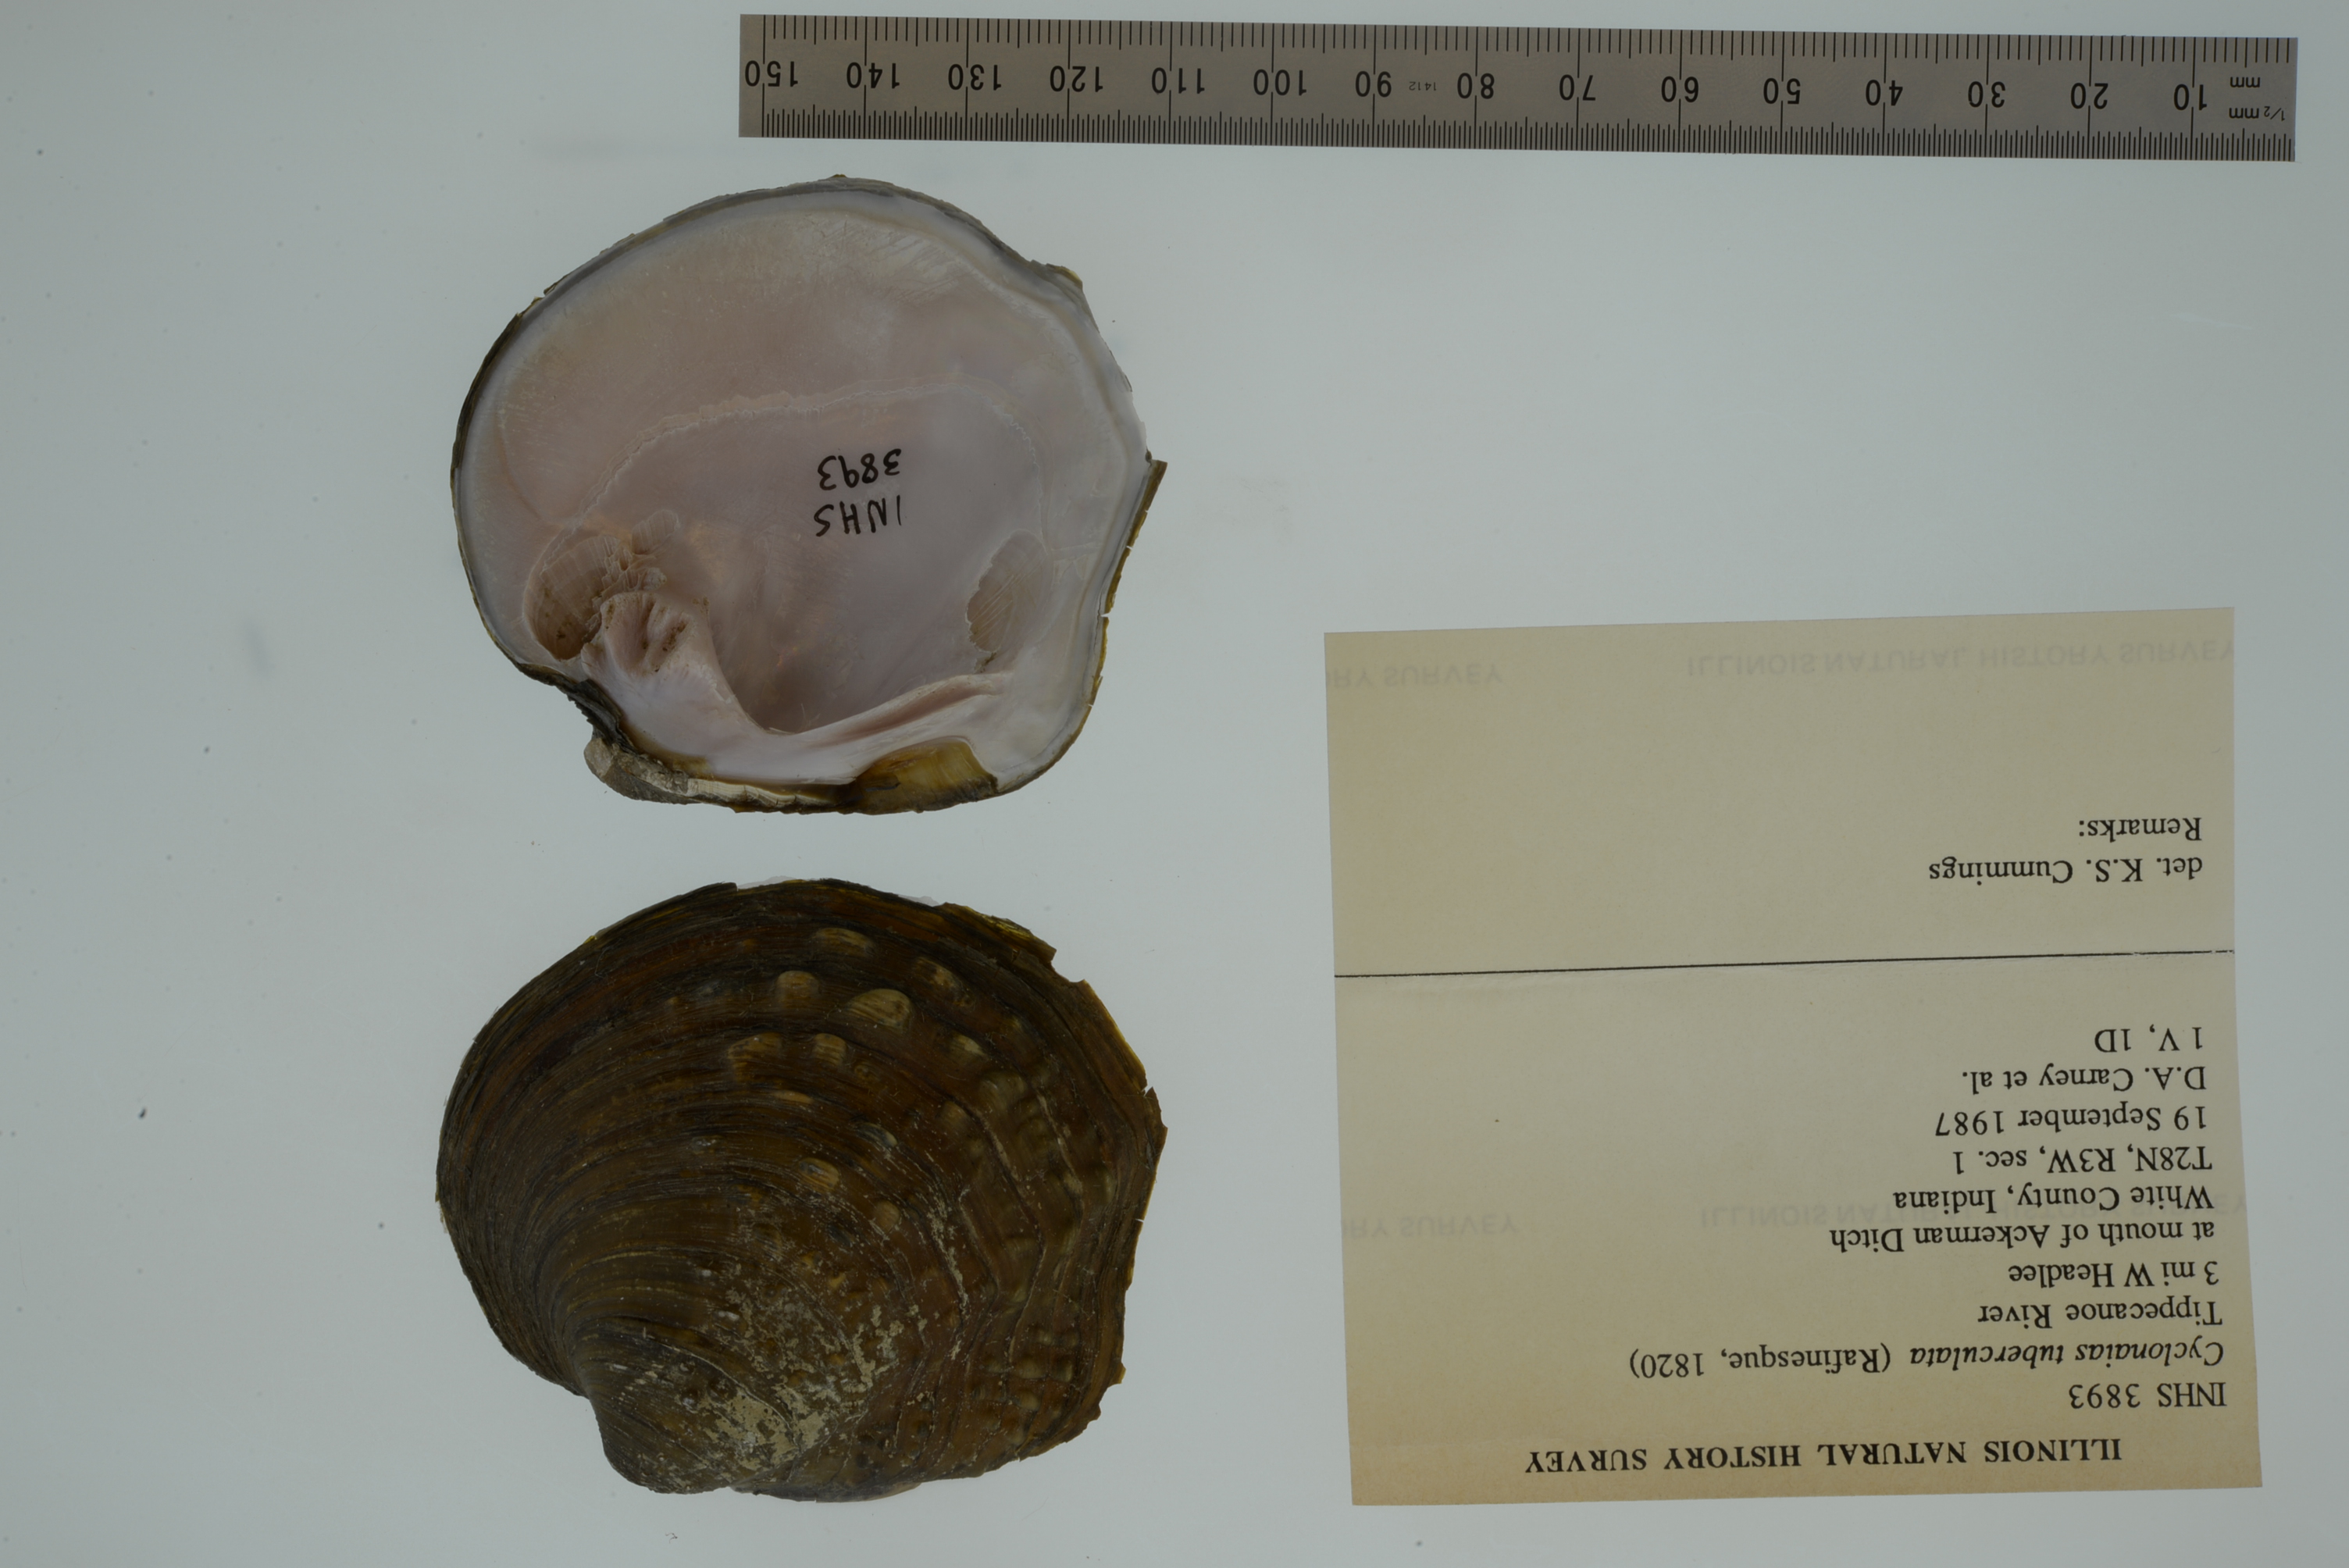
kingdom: Animalia
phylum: Mollusca
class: Bivalvia
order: Unionida
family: Unionidae
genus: Cyclonaias
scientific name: Cyclonaias tuberculata
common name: Purple wartyback
